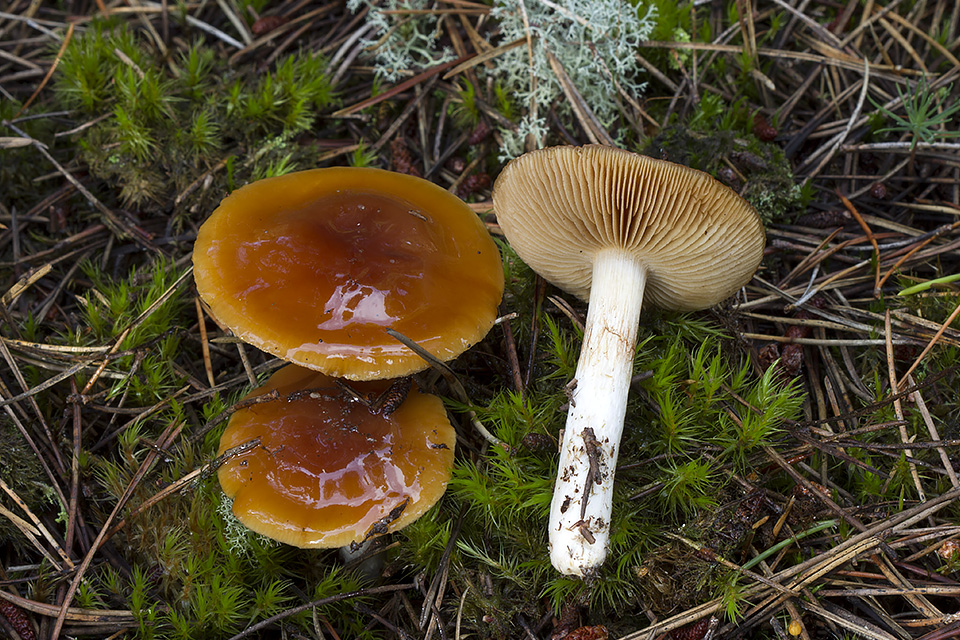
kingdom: Fungi
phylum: Basidiomycota
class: Agaricomycetes
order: Agaricales
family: Cortinariaceae
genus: Cortinarius
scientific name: Cortinarius mucosus
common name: kastaniebrun slørhat
